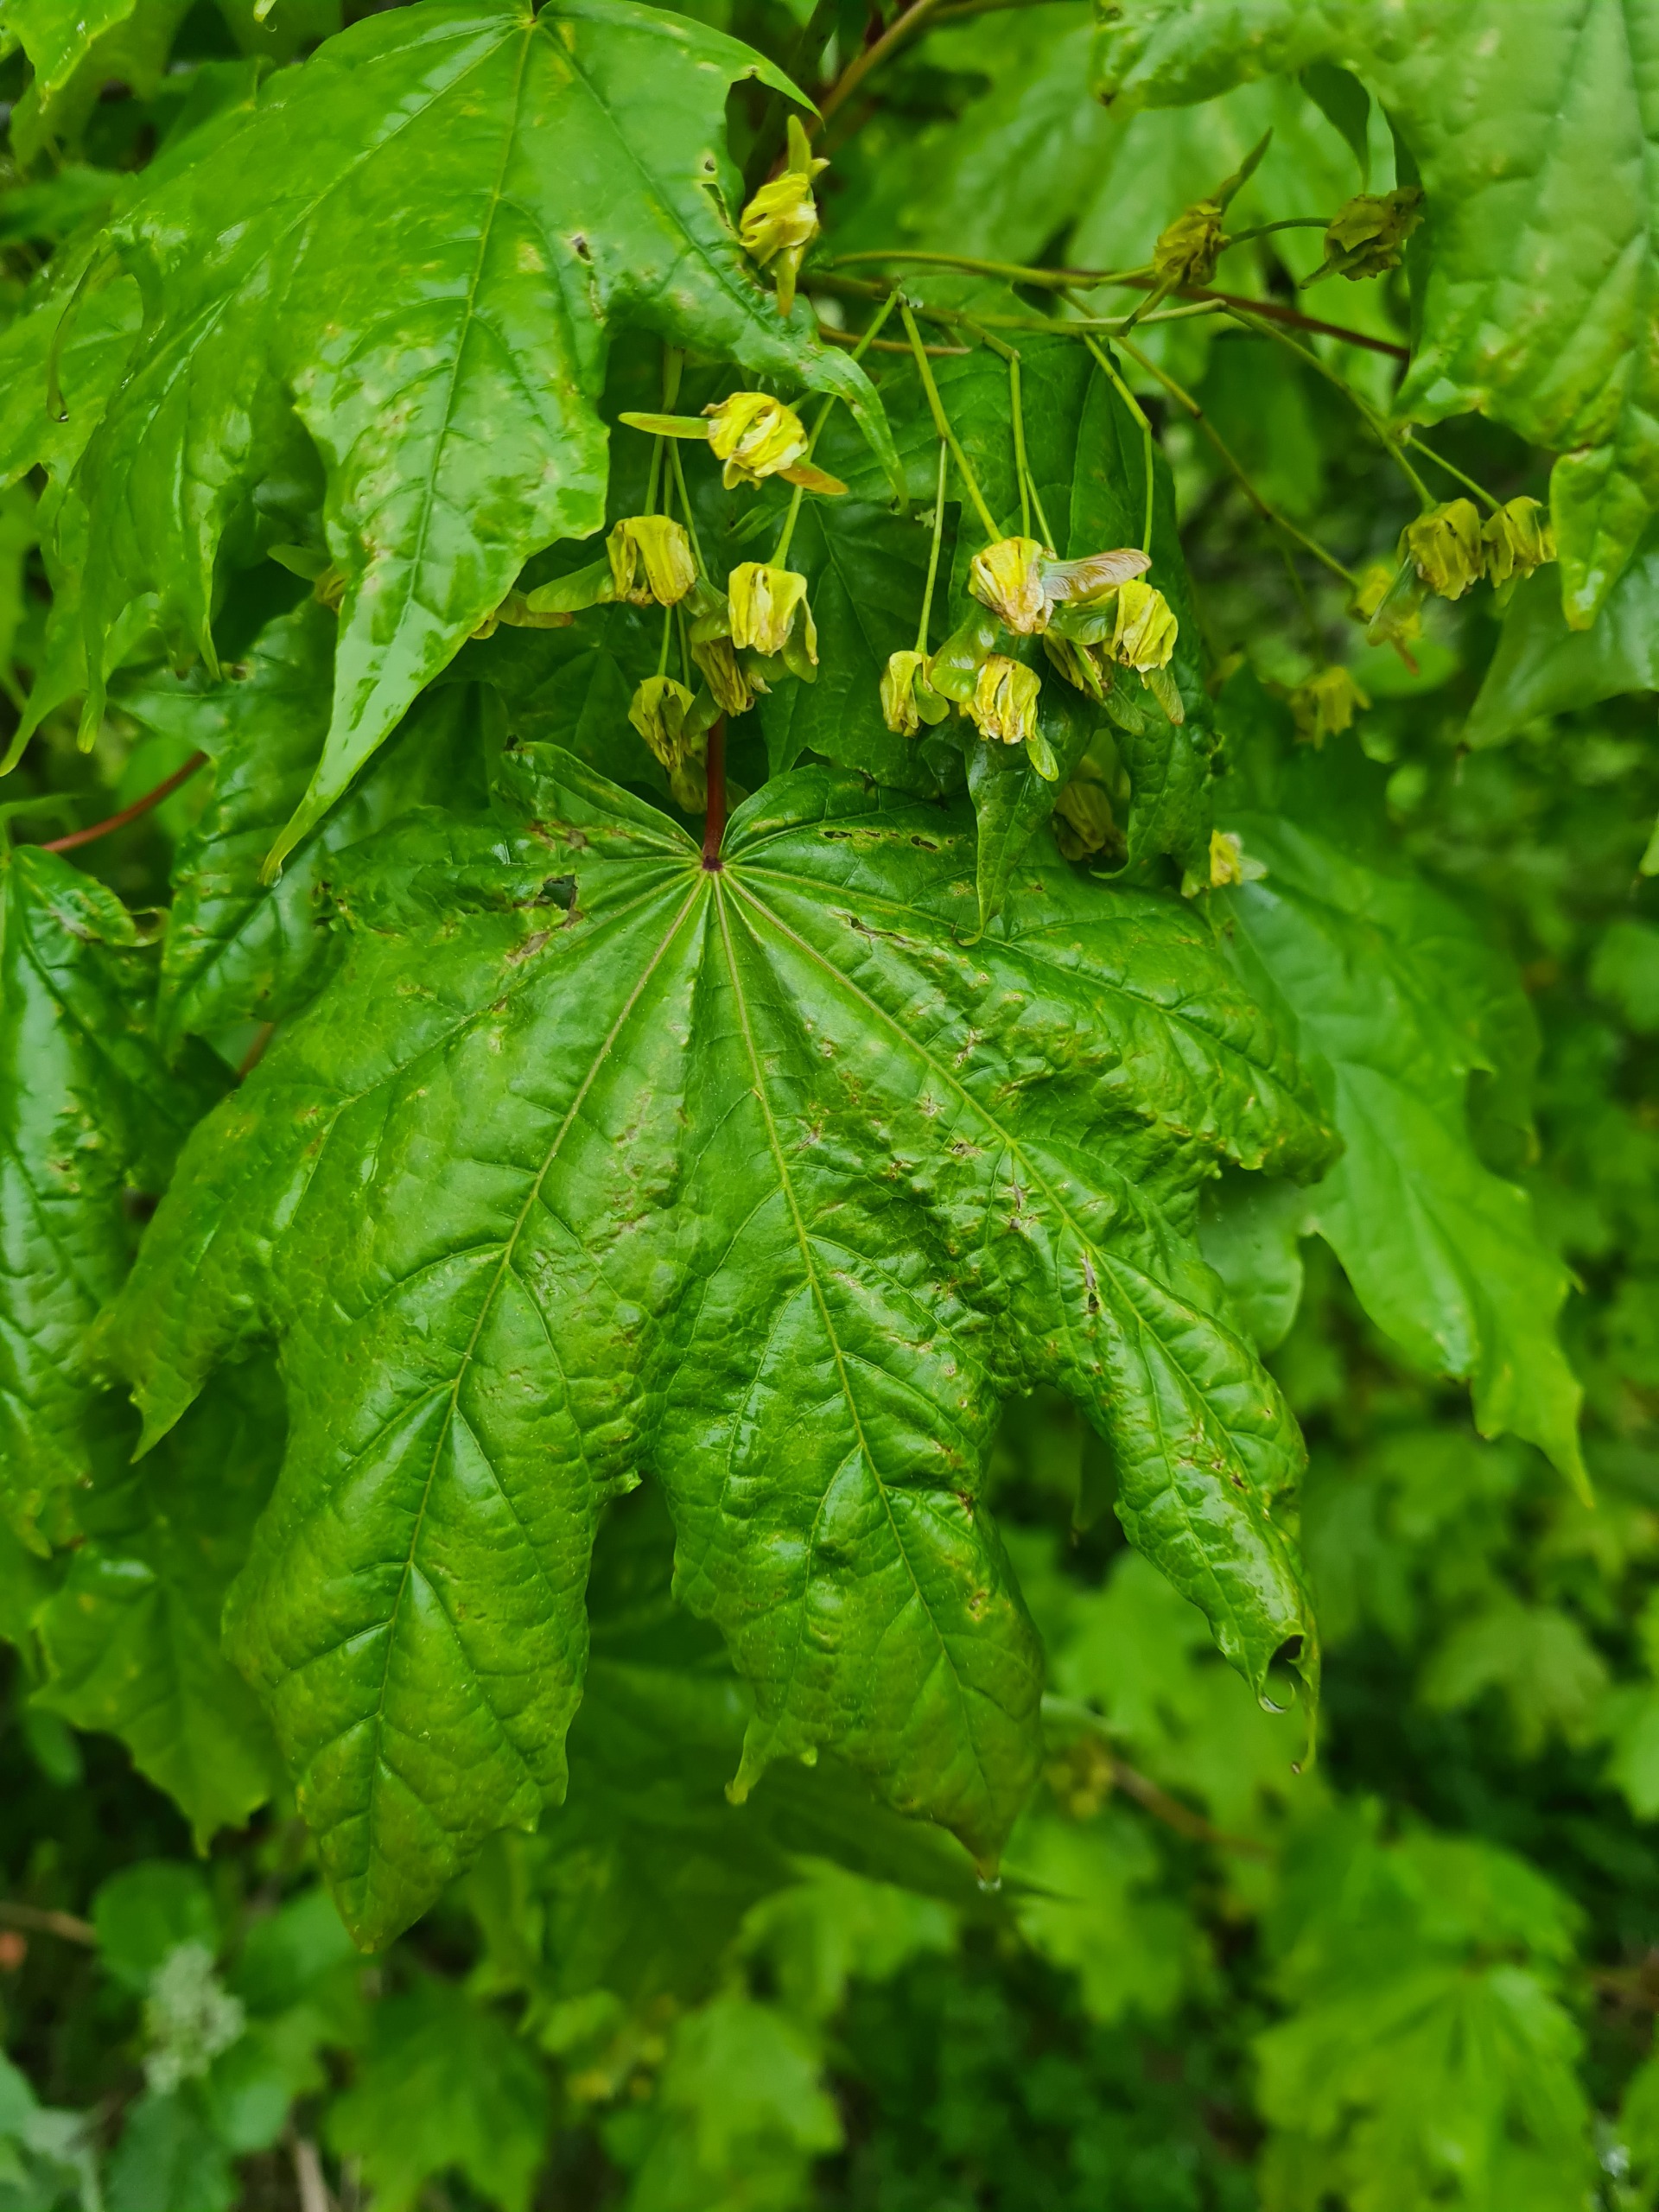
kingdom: Plantae
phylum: Tracheophyta
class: Magnoliopsida
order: Sapindales
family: Sapindaceae
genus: Acer
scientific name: Acer platanoides
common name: Spids-løn
